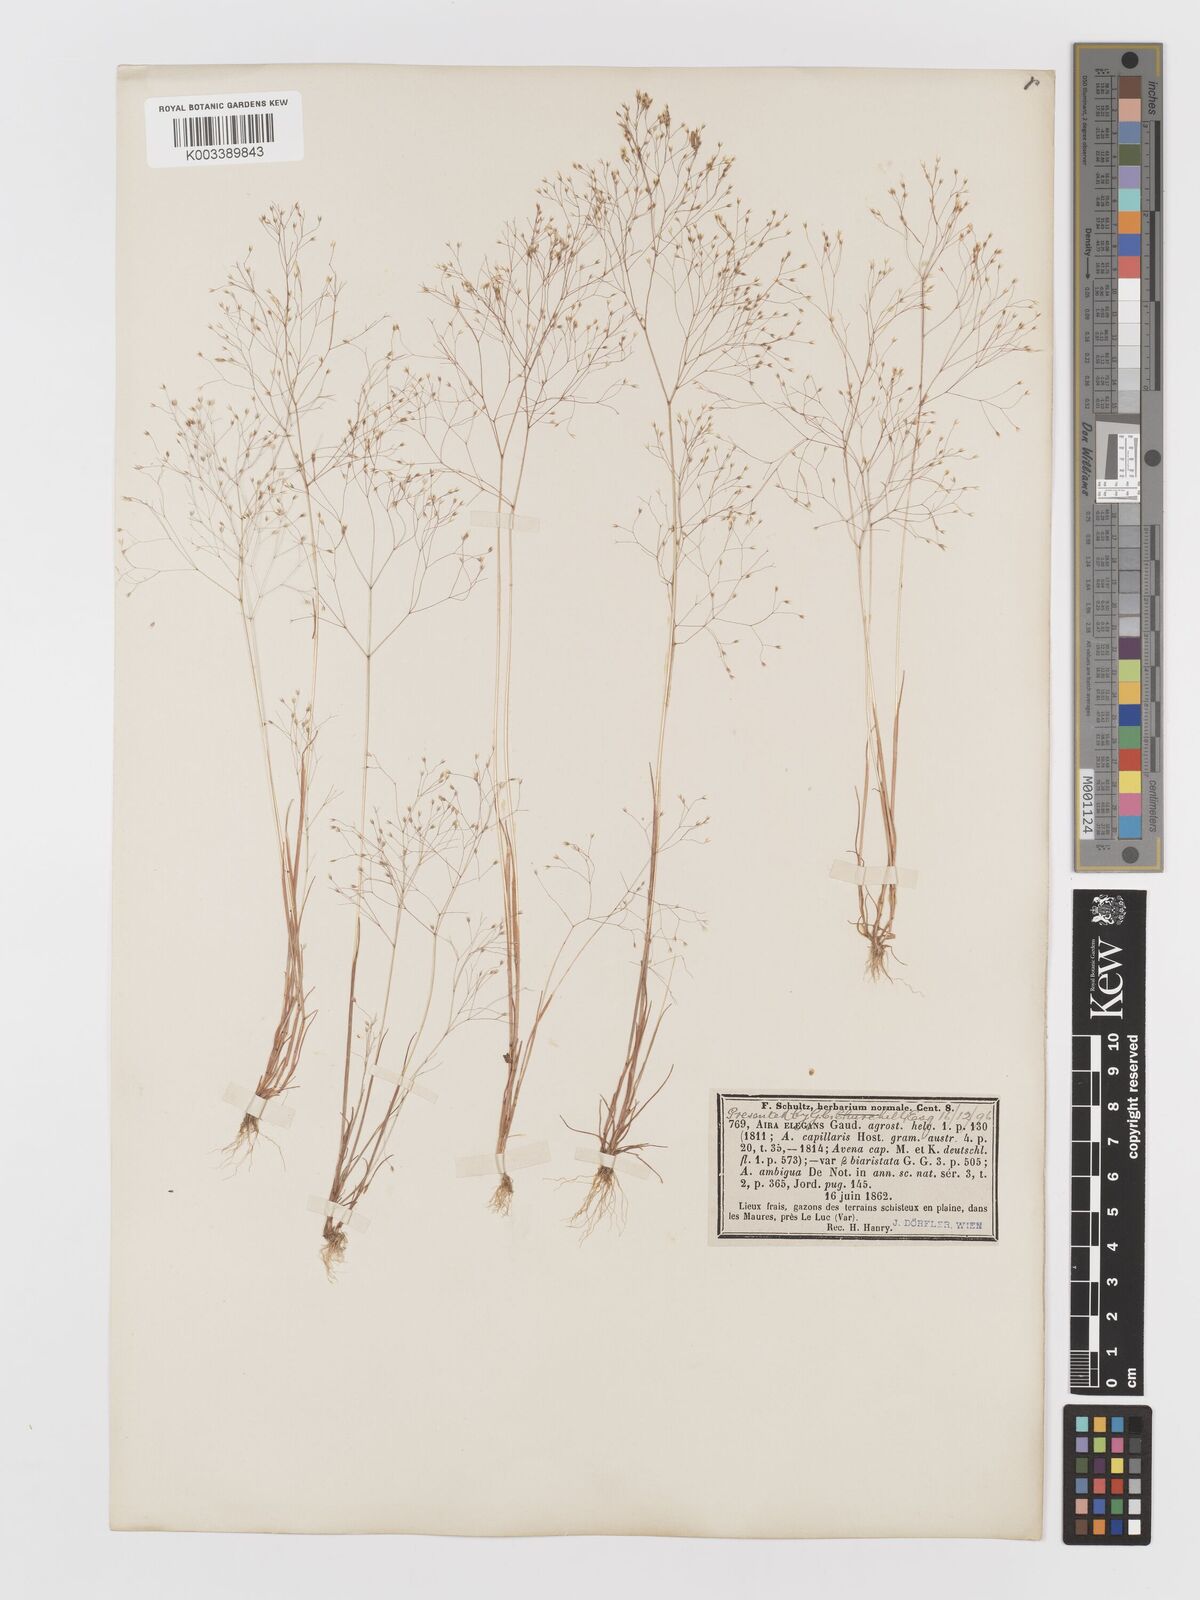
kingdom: Plantae
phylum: Tracheophyta
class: Liliopsida
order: Poales
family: Poaceae
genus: Aira
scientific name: Aira elegans
